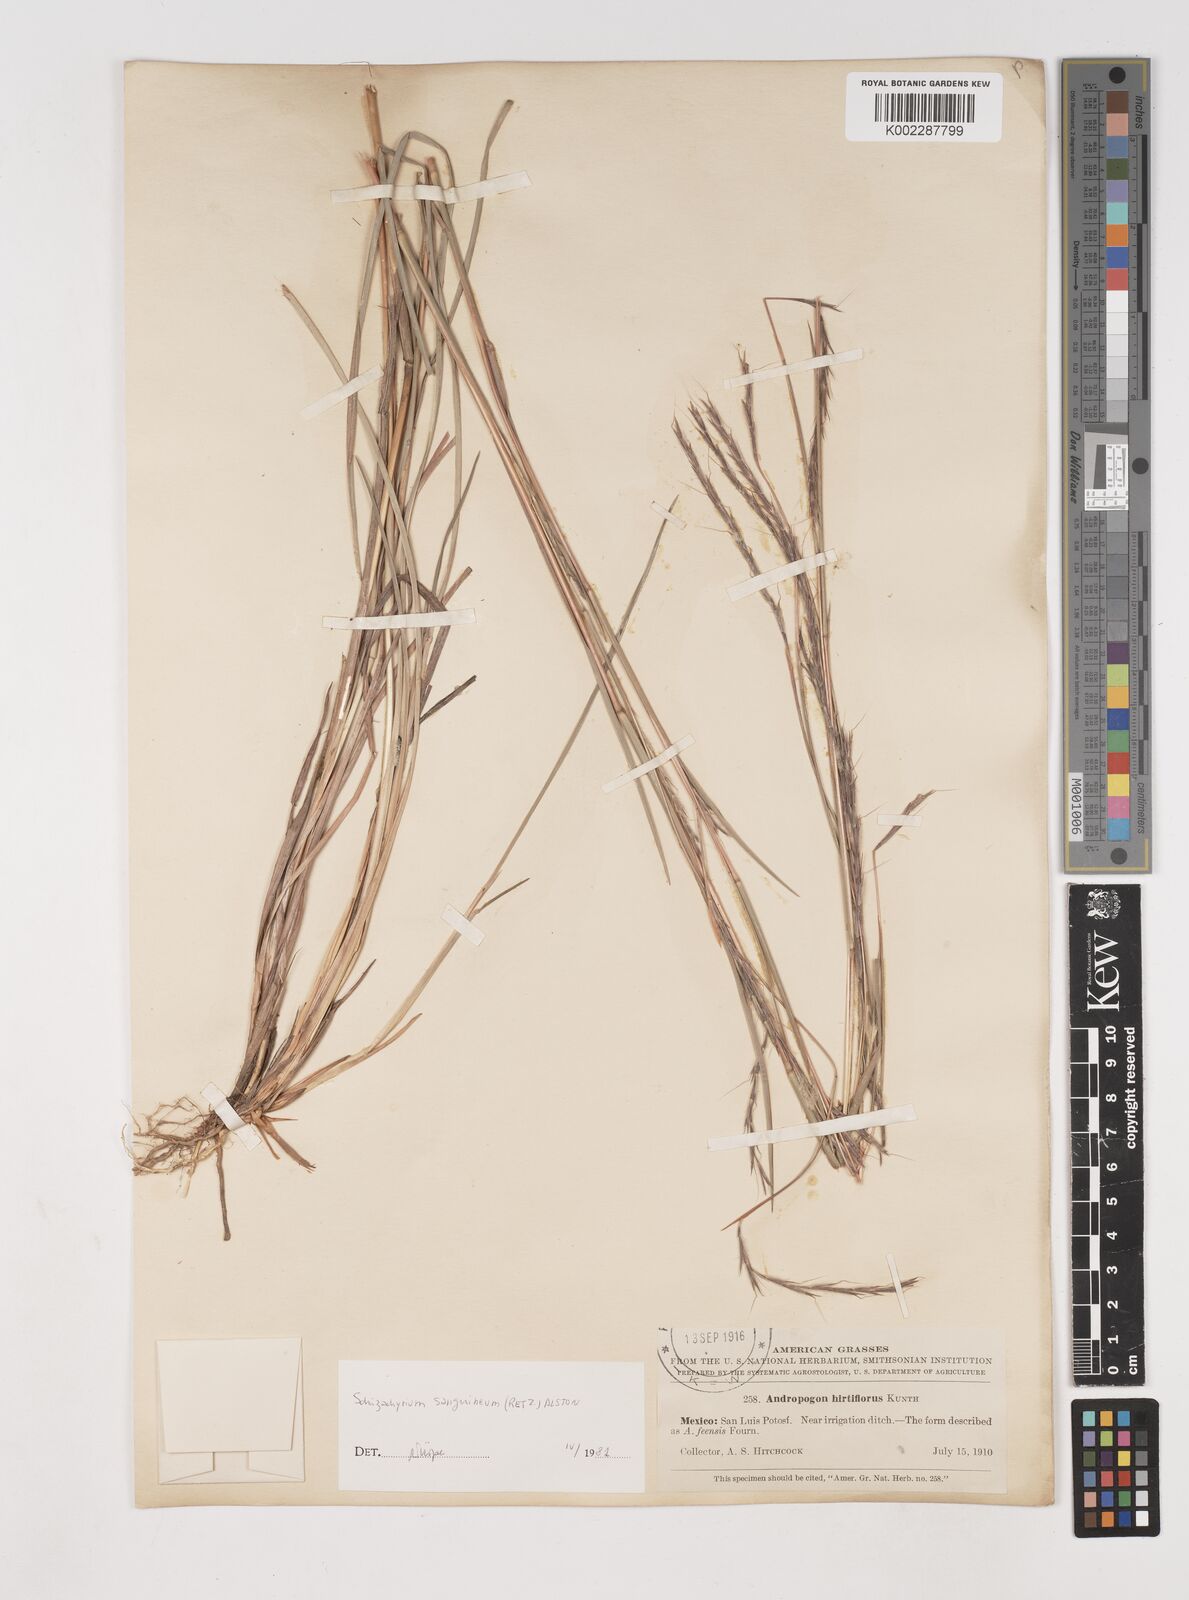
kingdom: Plantae
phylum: Tracheophyta
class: Liliopsida
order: Poales
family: Poaceae
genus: Schizachyrium
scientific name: Schizachyrium sanguineum
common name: Crimson bluestem
